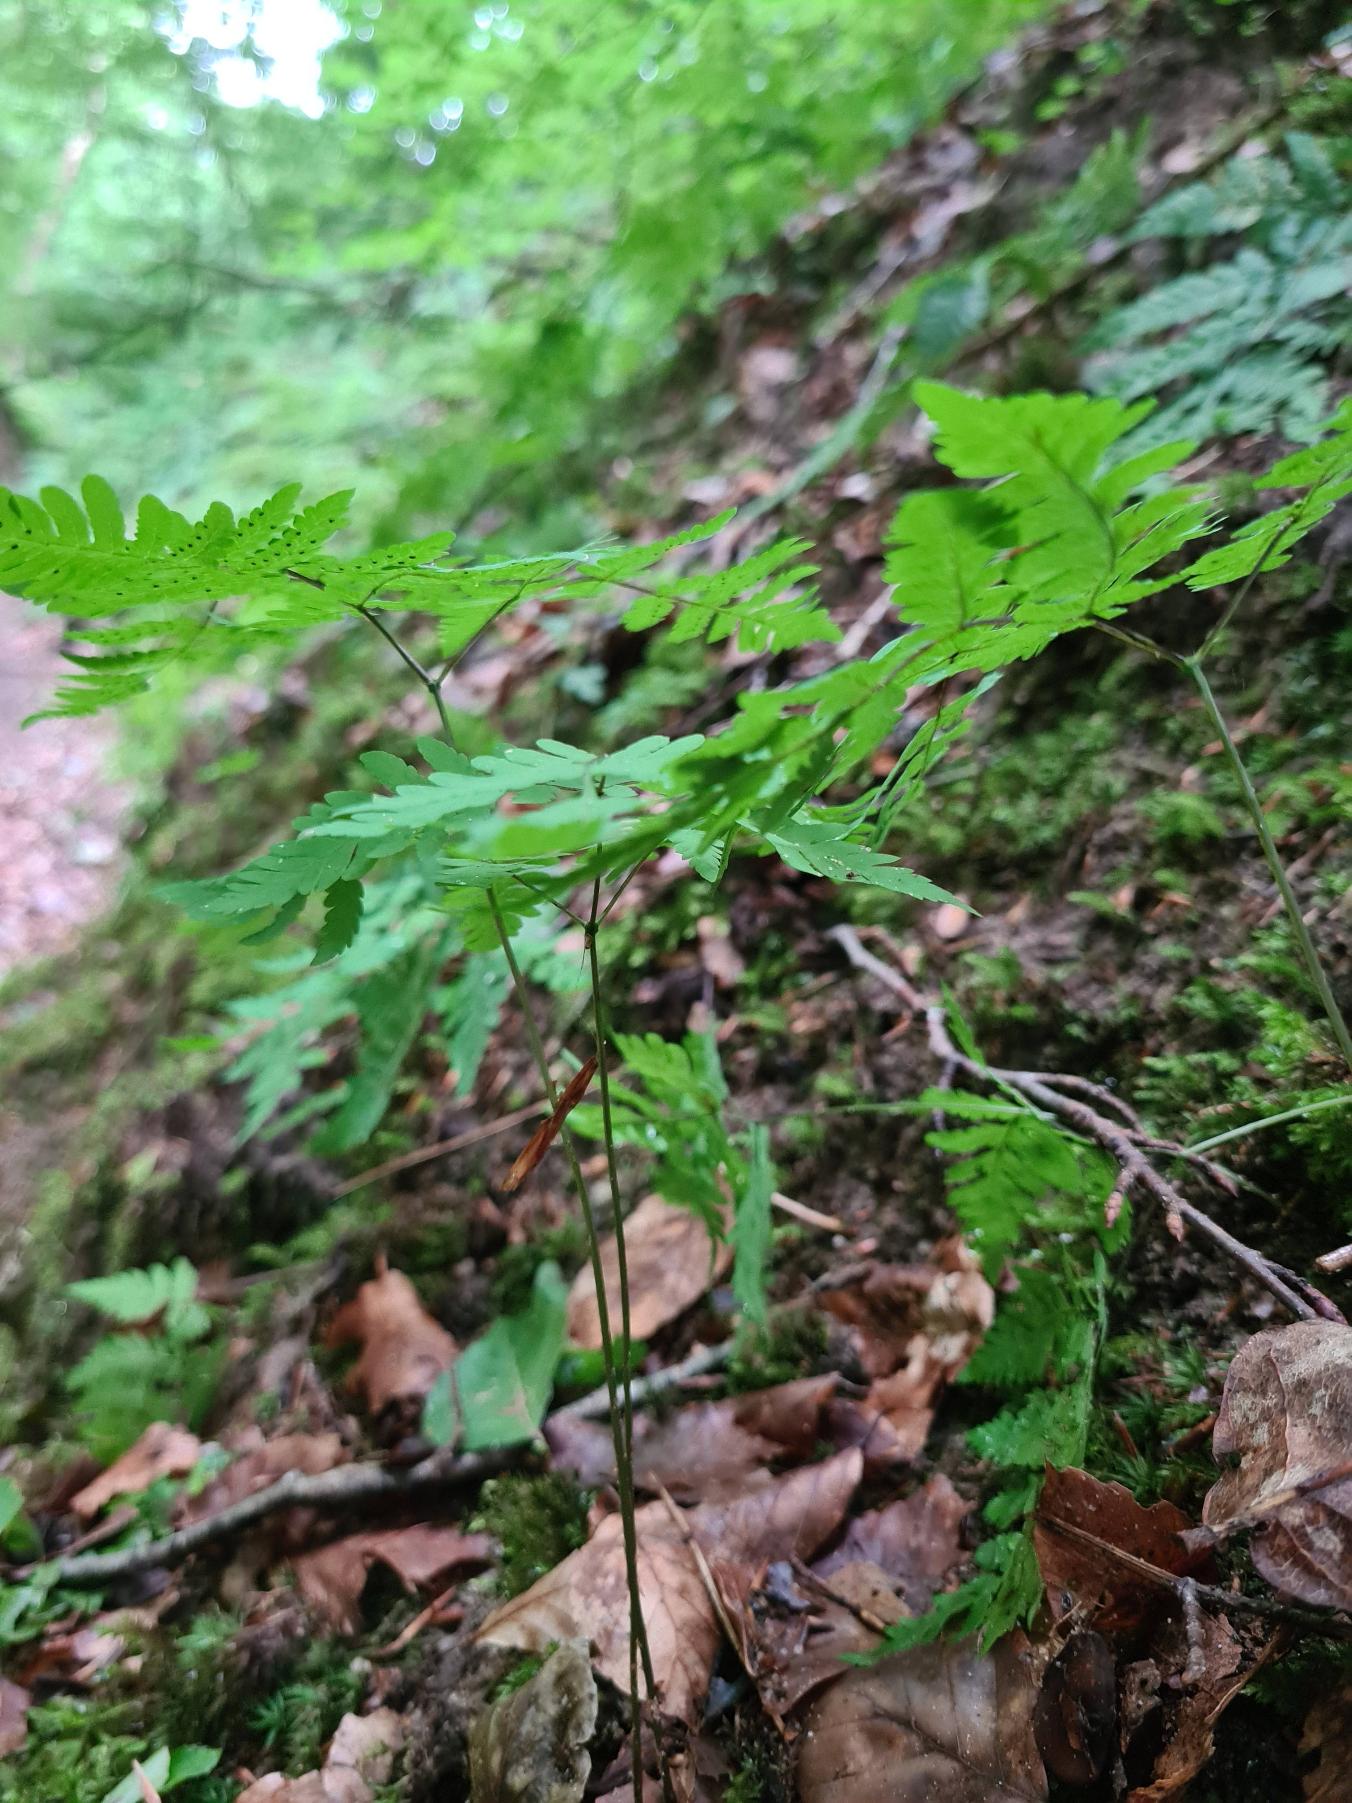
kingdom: Plantae
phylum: Tracheophyta
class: Polypodiopsida
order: Polypodiales
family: Cystopteridaceae
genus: Gymnocarpium
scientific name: Gymnocarpium dryopteris
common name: Tredelt egebregne
